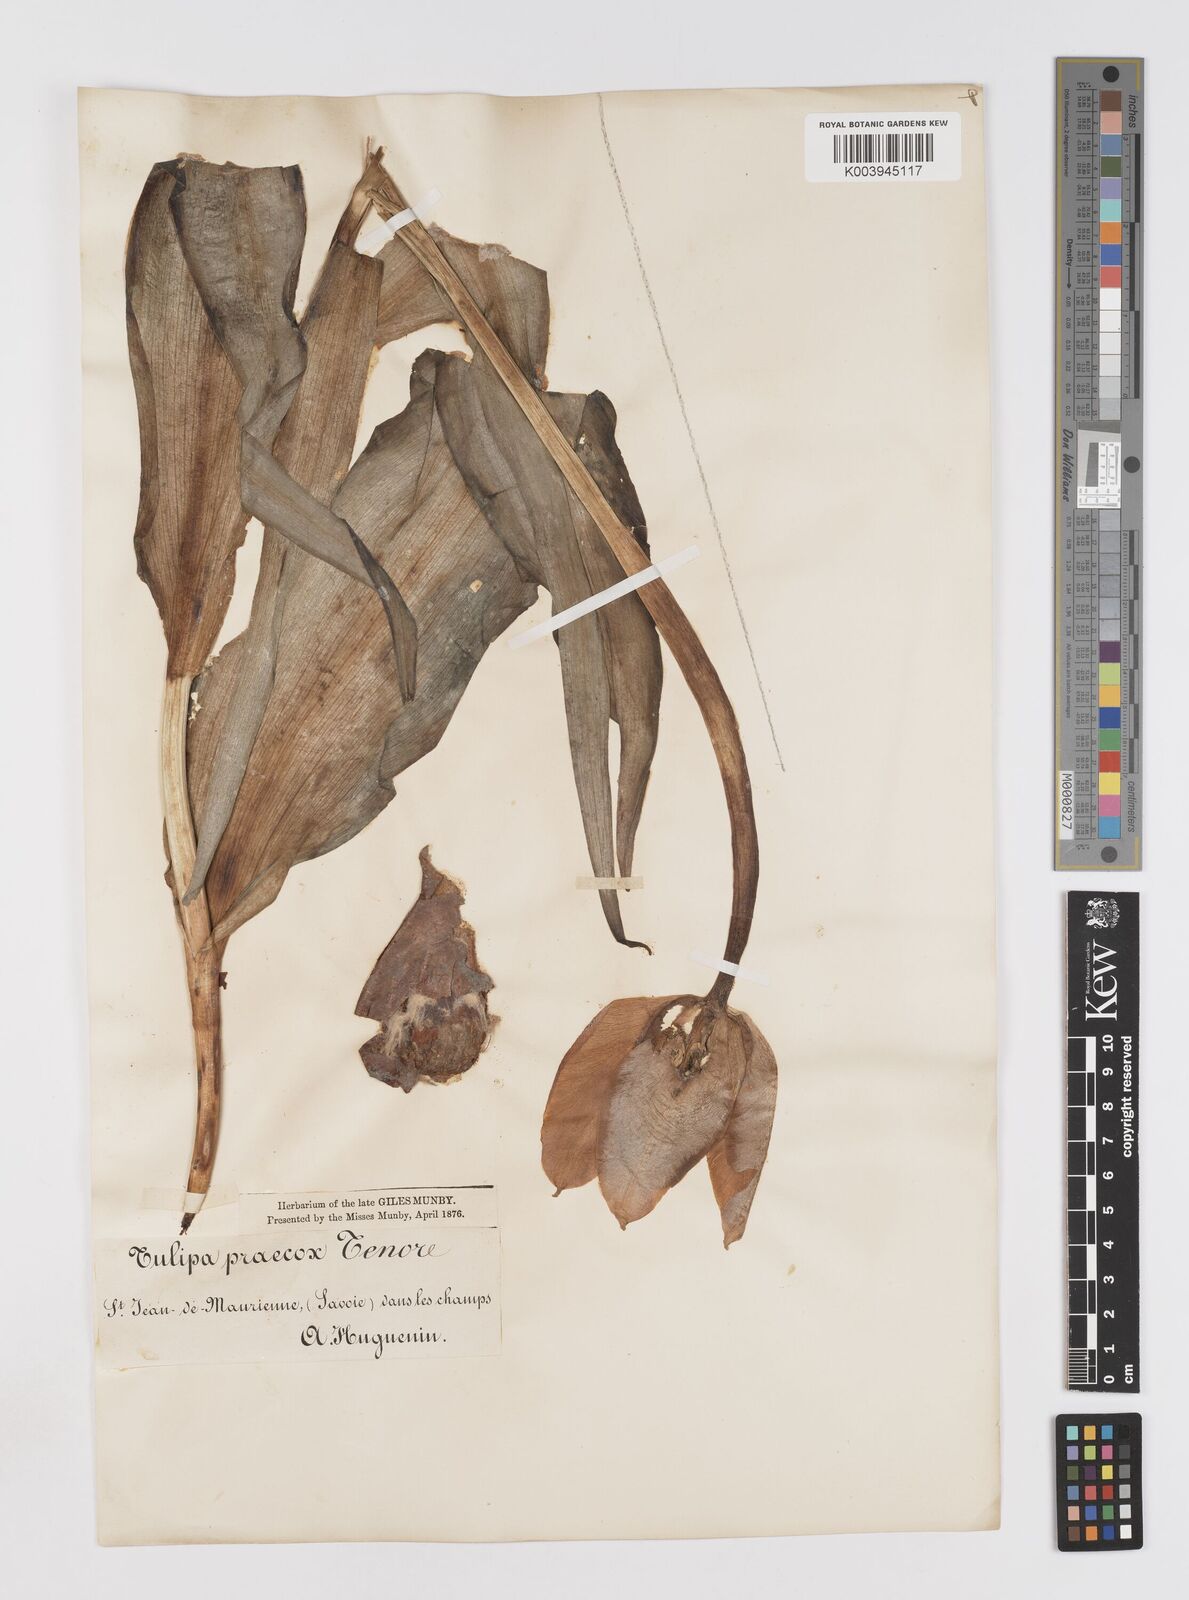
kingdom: Plantae
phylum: Tracheophyta
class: Liliopsida
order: Liliales
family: Liliaceae
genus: Tulipa
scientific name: Tulipa
